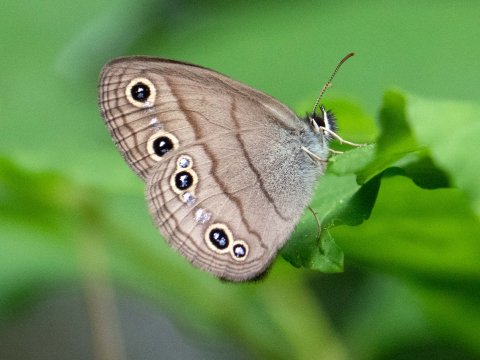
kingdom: Animalia
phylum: Arthropoda
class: Insecta
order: Lepidoptera
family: Nymphalidae
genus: Euptychia
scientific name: Euptychia cymela
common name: Little Wood Satyr
